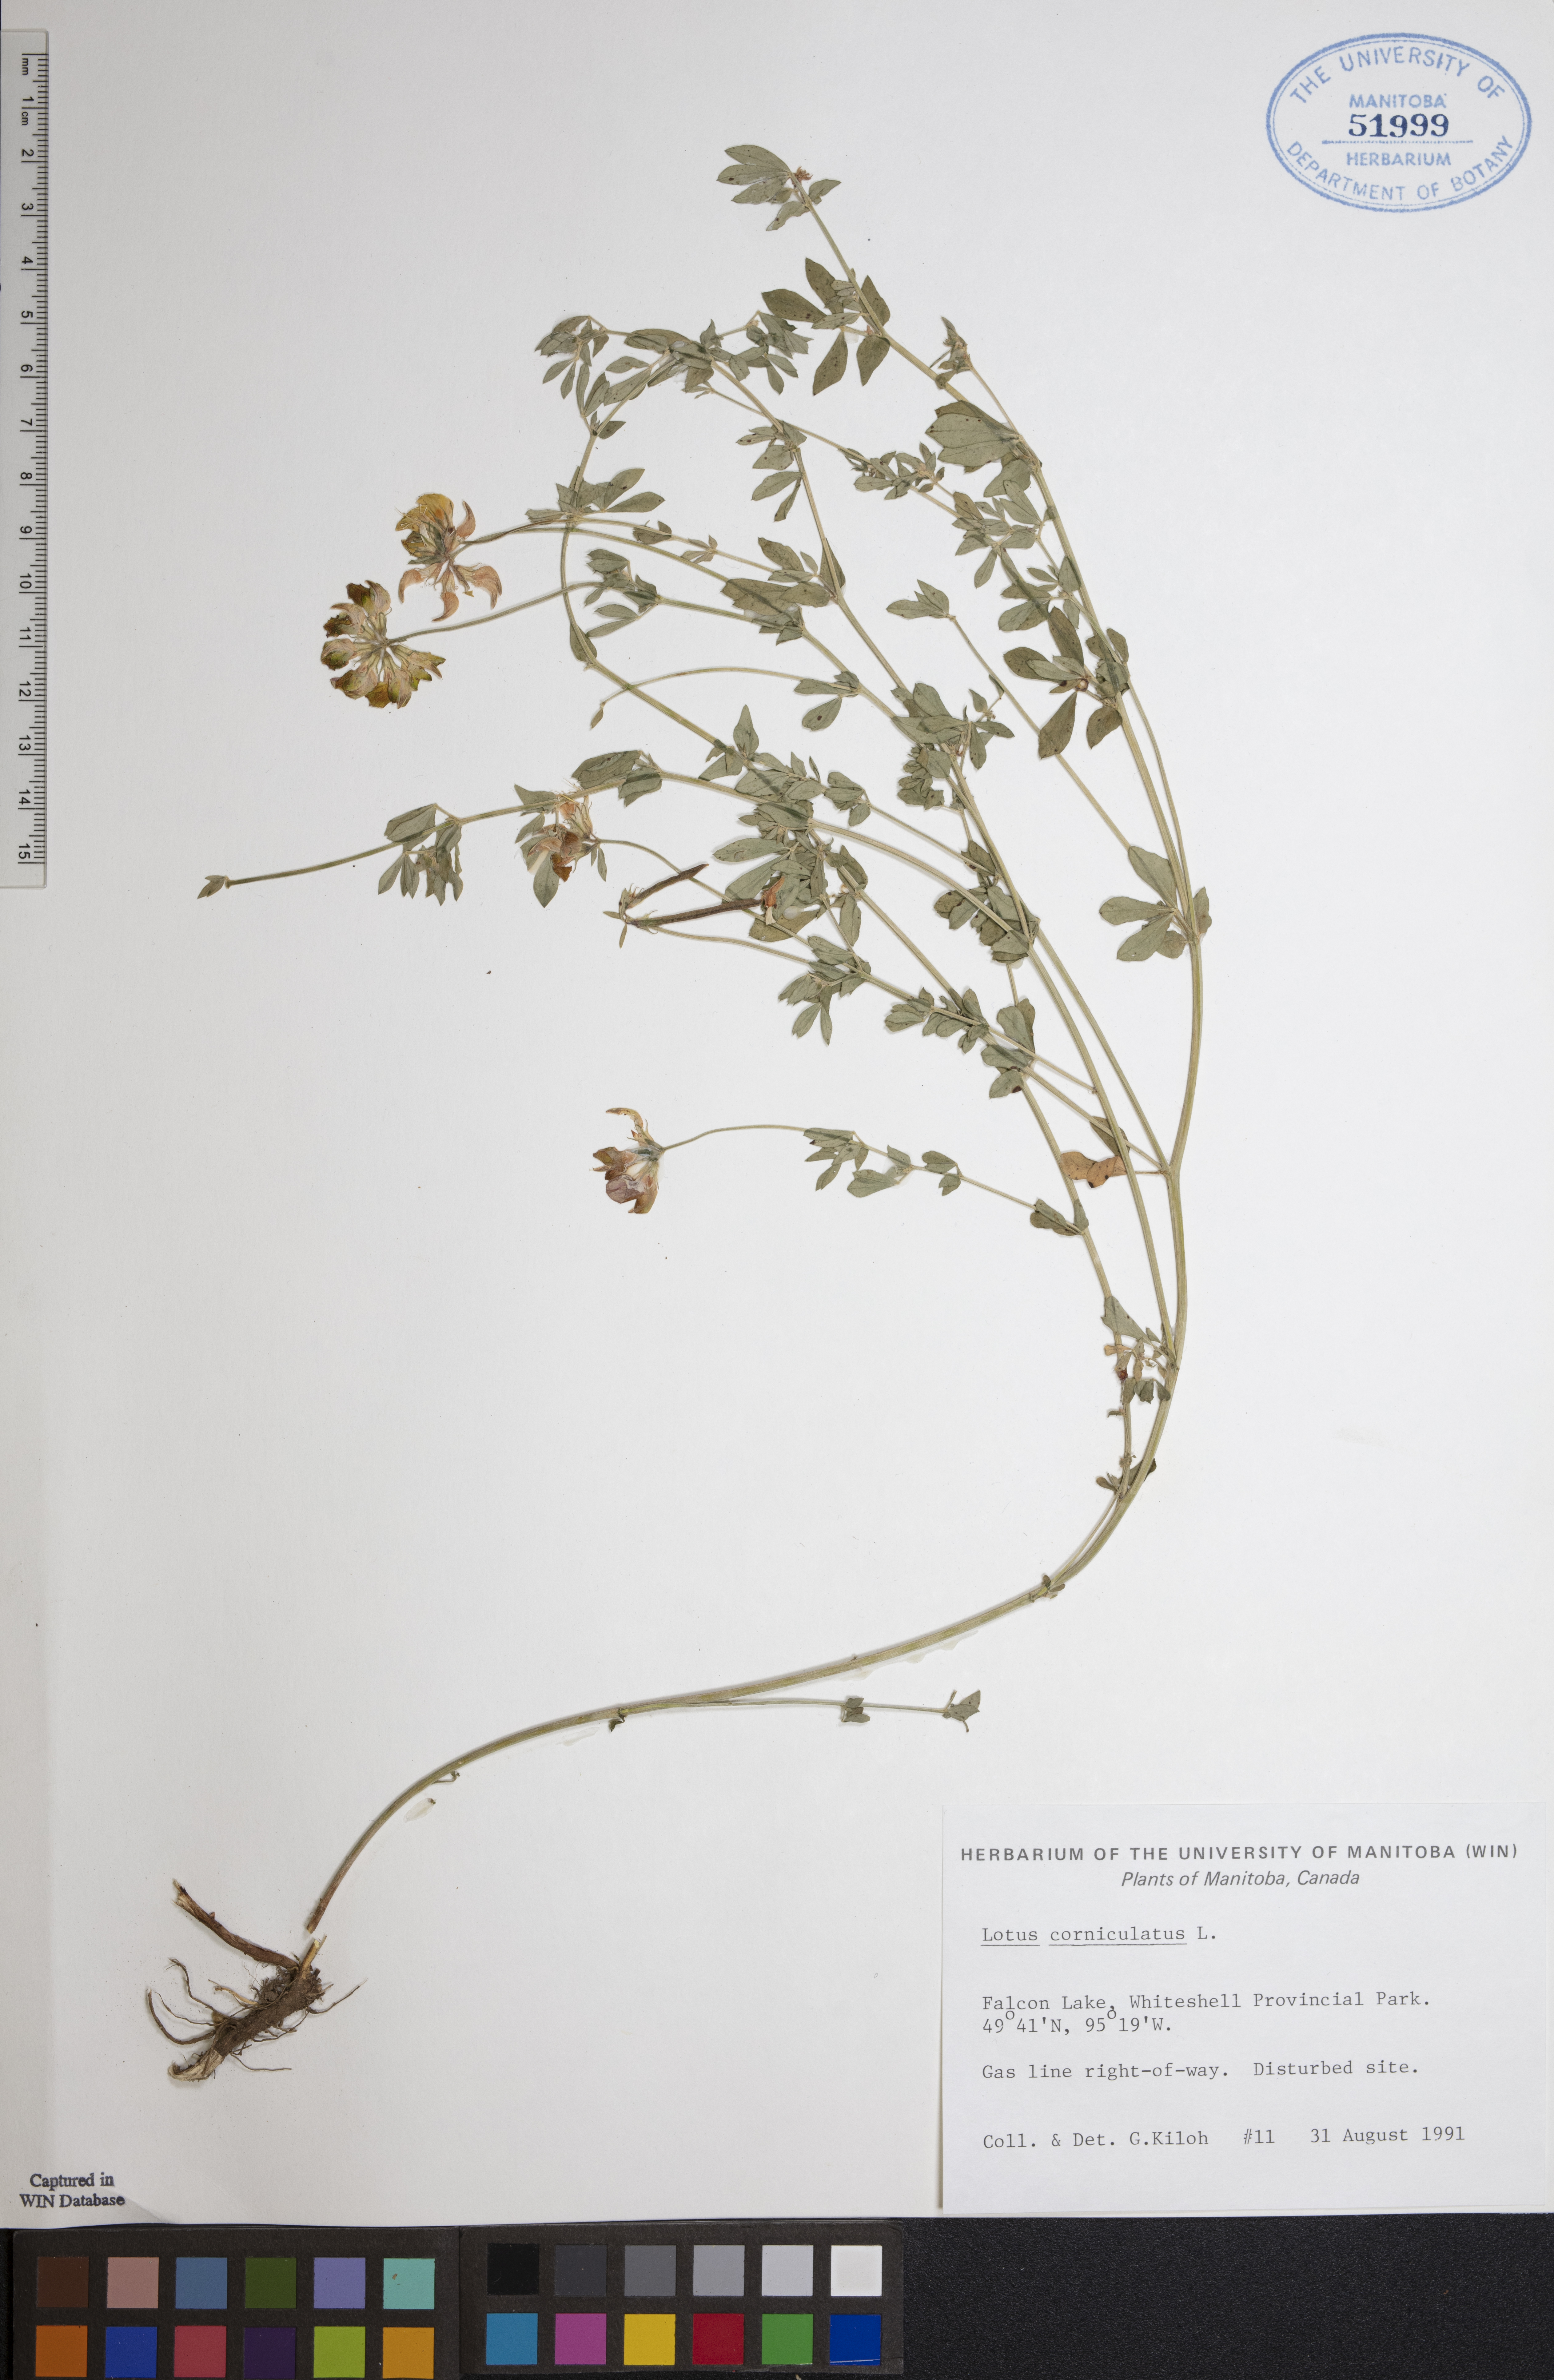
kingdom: Plantae
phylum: Tracheophyta
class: Magnoliopsida
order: Fabales
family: Fabaceae
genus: Lotus
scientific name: Lotus corniculatus
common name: Common bird's-foot-trefoil
